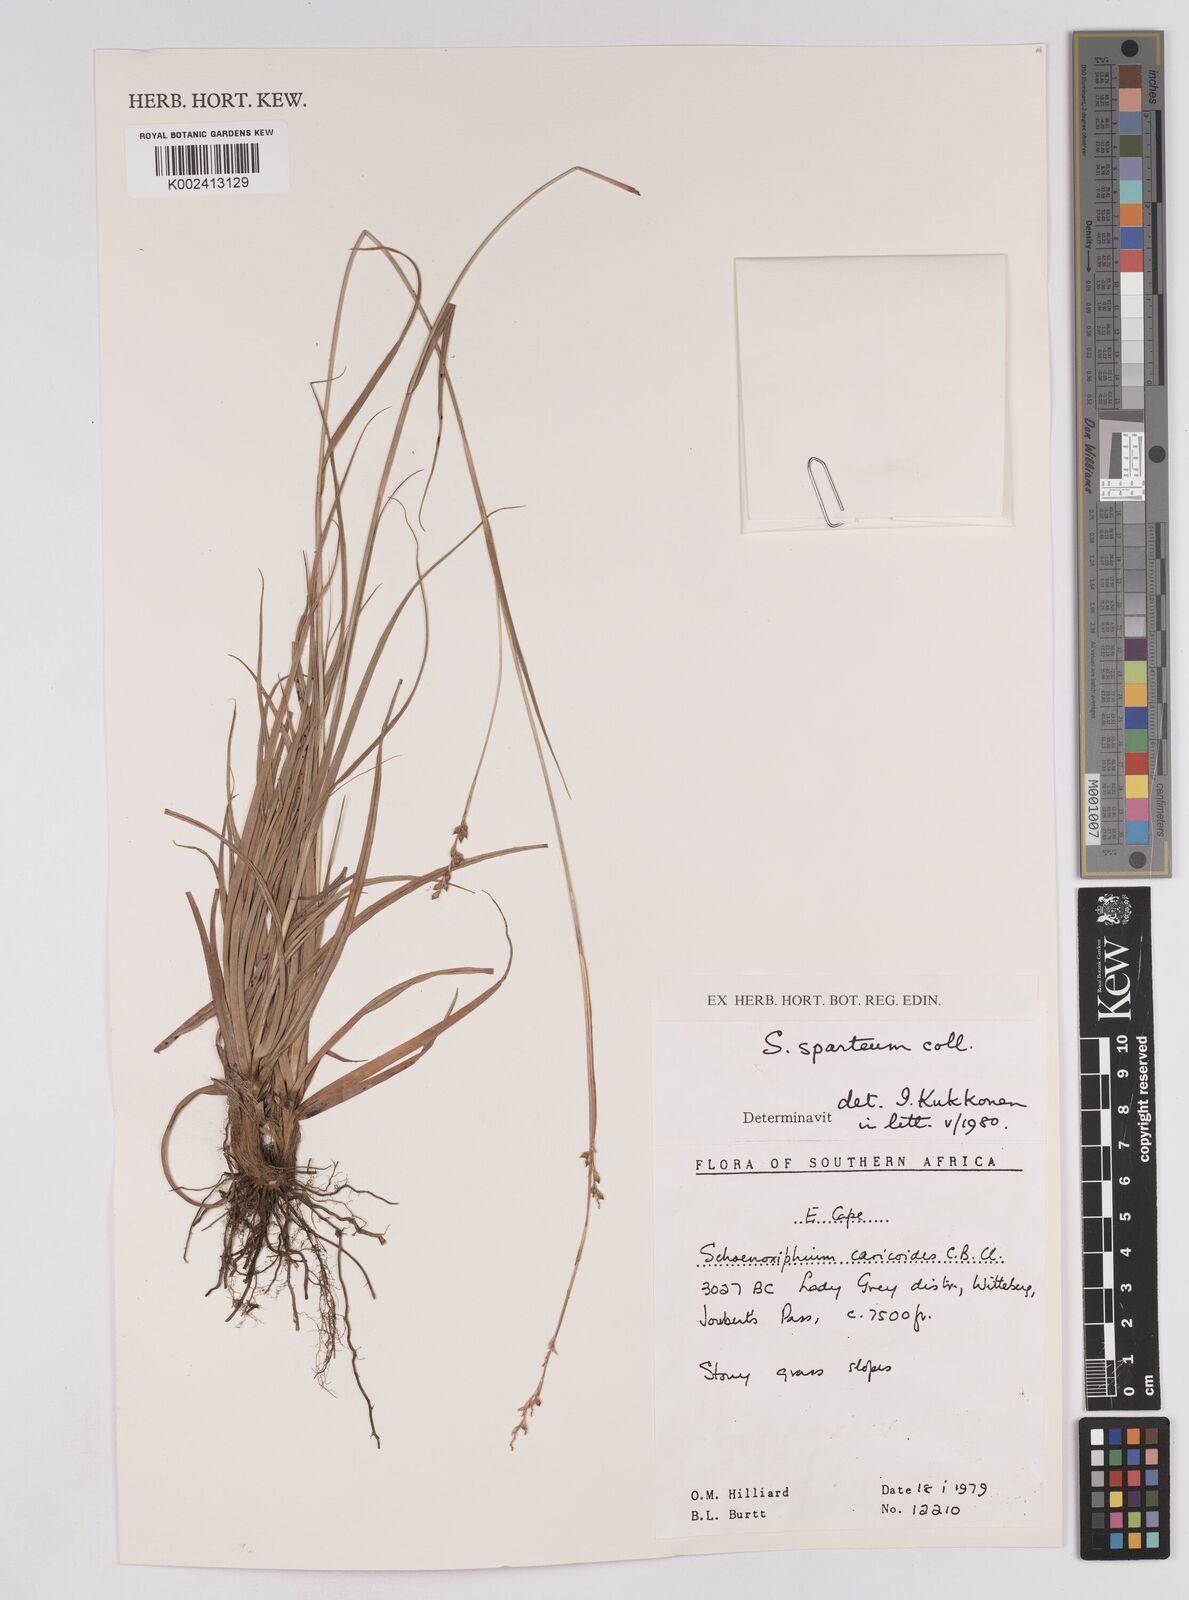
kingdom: Plantae
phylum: Tracheophyta
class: Liliopsida
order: Poales
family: Cyperaceae
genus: Carex
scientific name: Carex spartea
